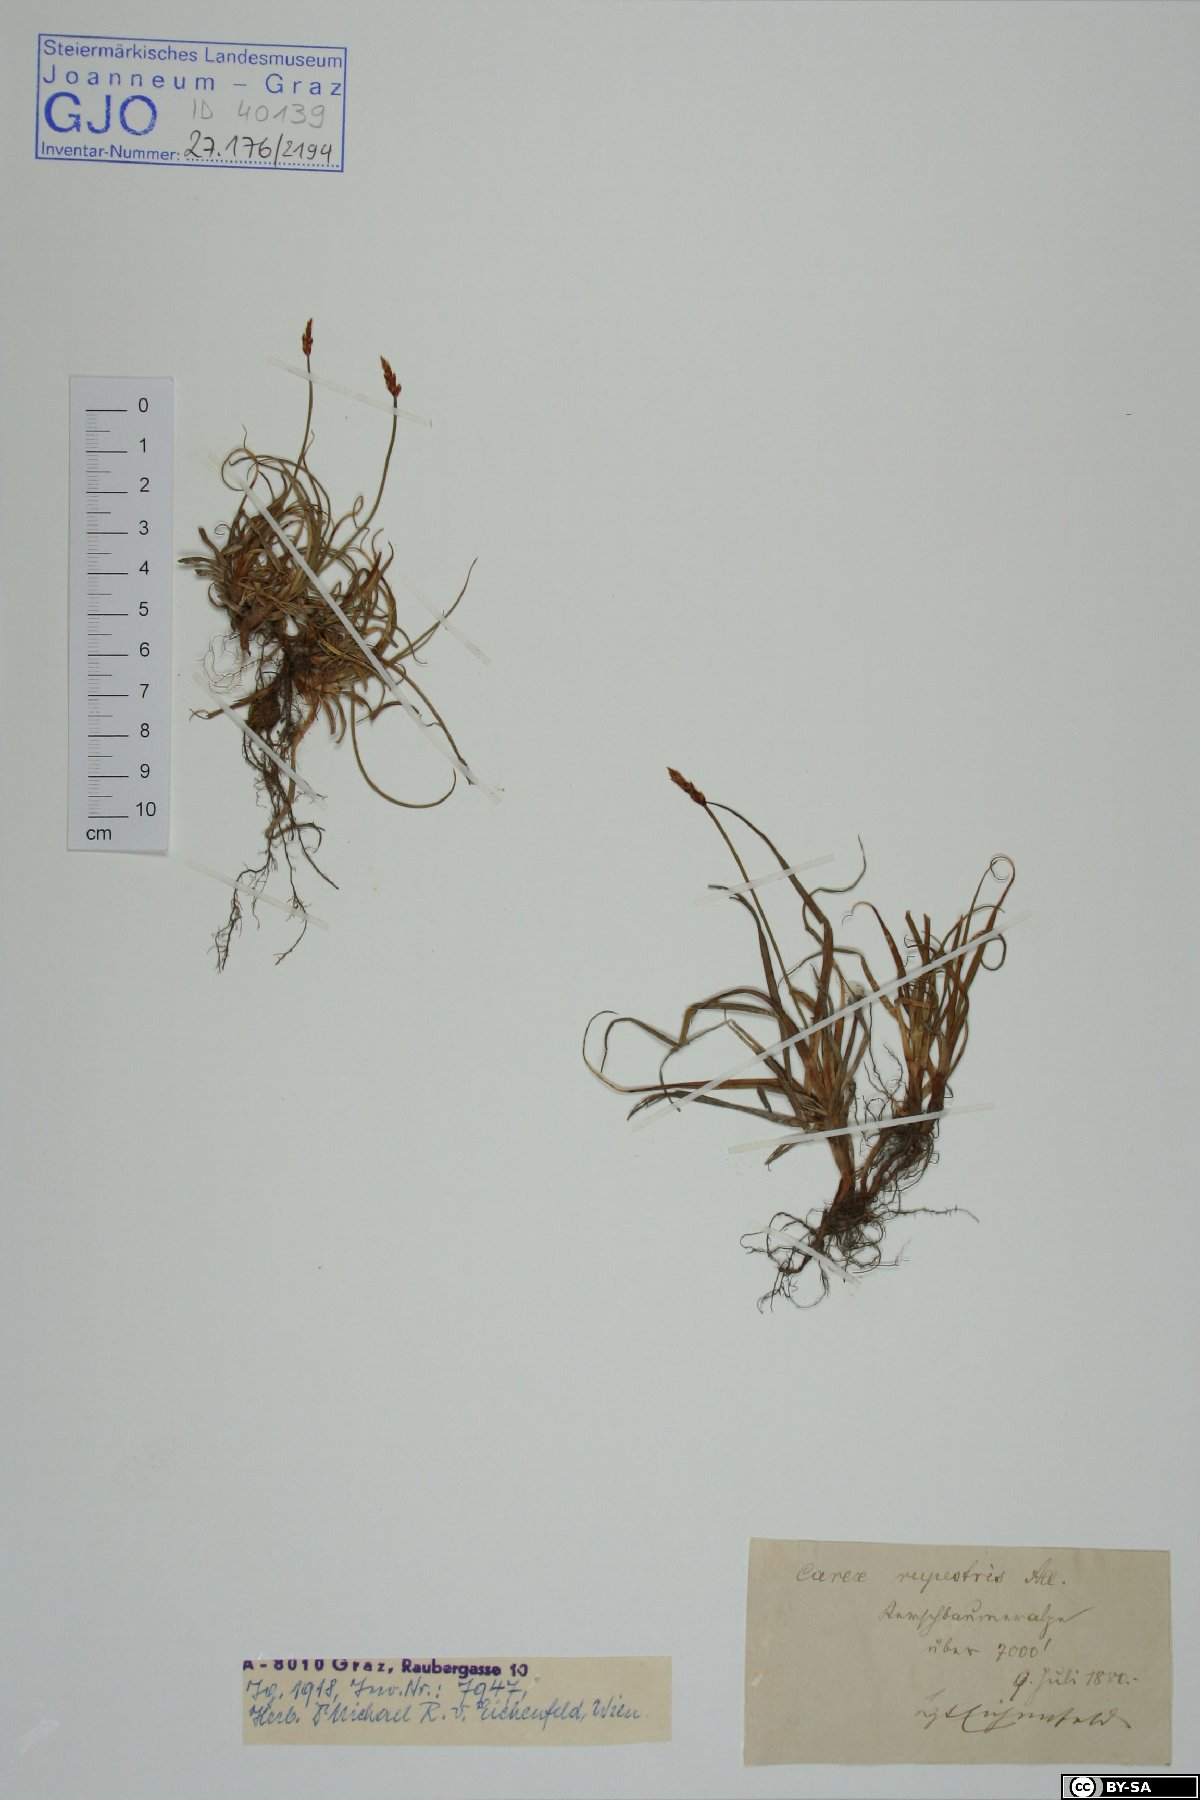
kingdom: Plantae
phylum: Tracheophyta
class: Liliopsida
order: Poales
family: Cyperaceae
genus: Carex
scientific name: Carex rupestris
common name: Rock sedge
